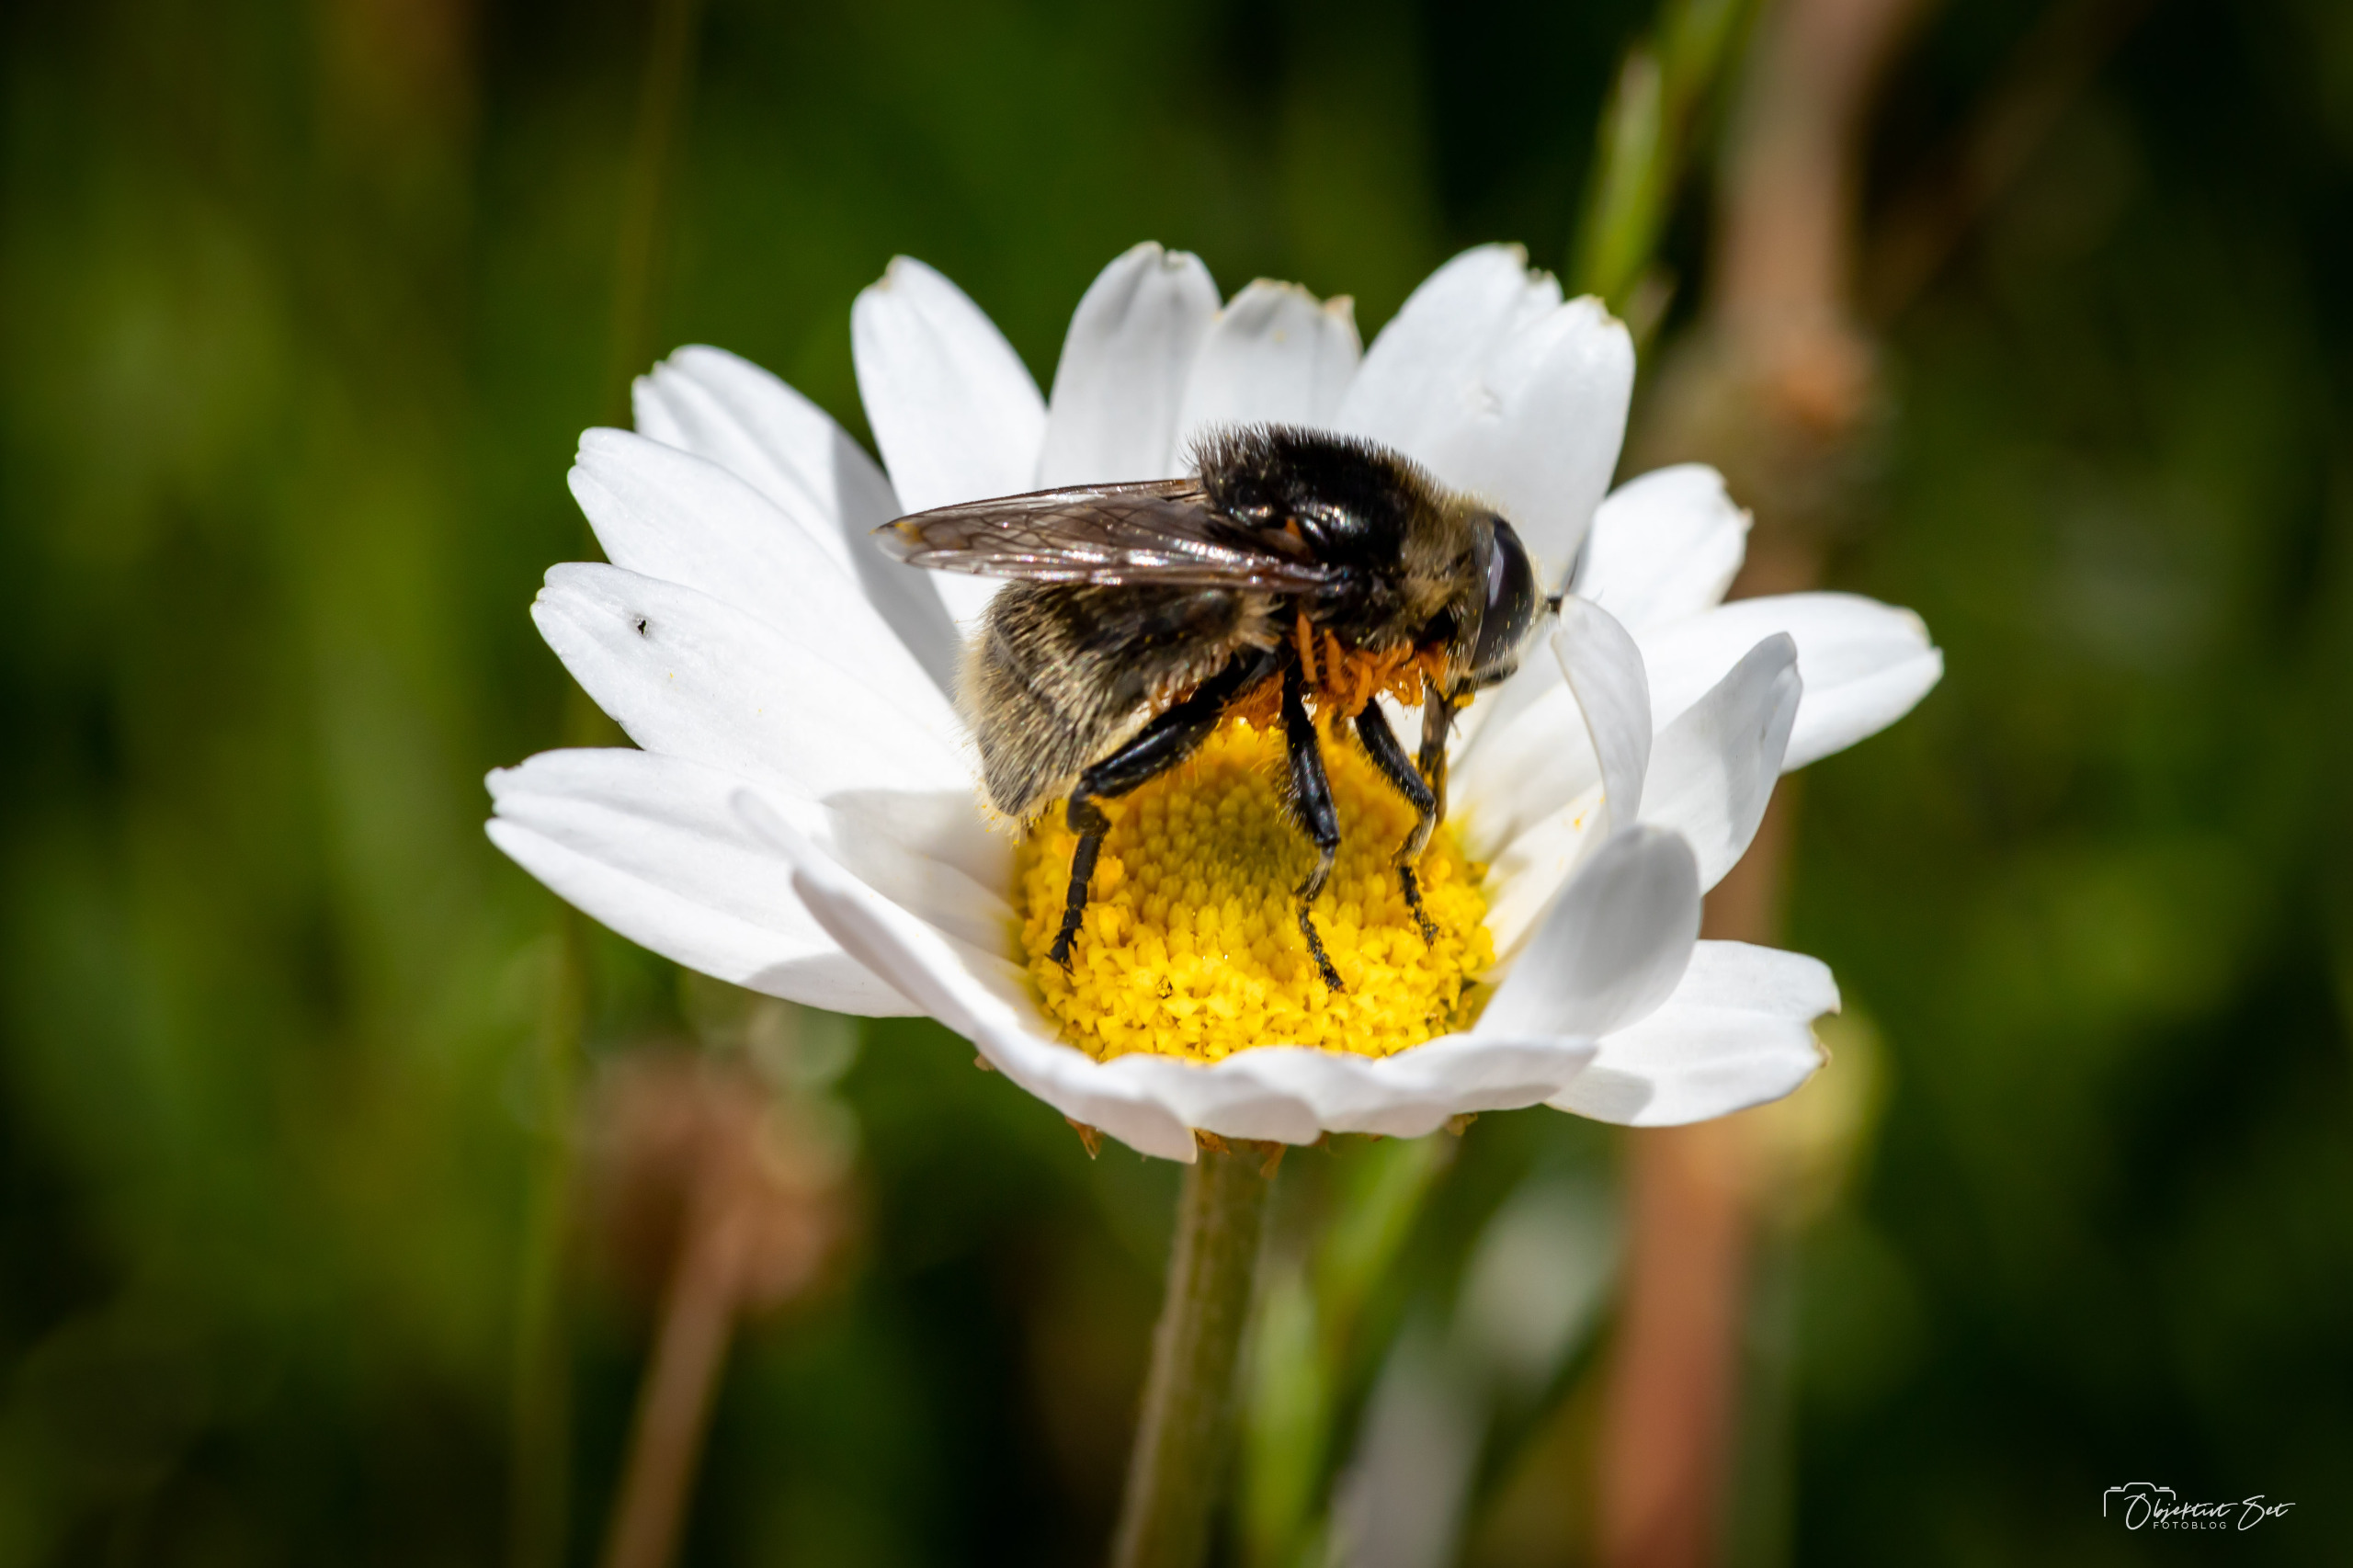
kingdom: Animalia
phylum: Arthropoda
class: Insecta
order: Diptera
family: Syrphidae
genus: Merodon
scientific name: Merodon equestris
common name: Stor narcisflue
